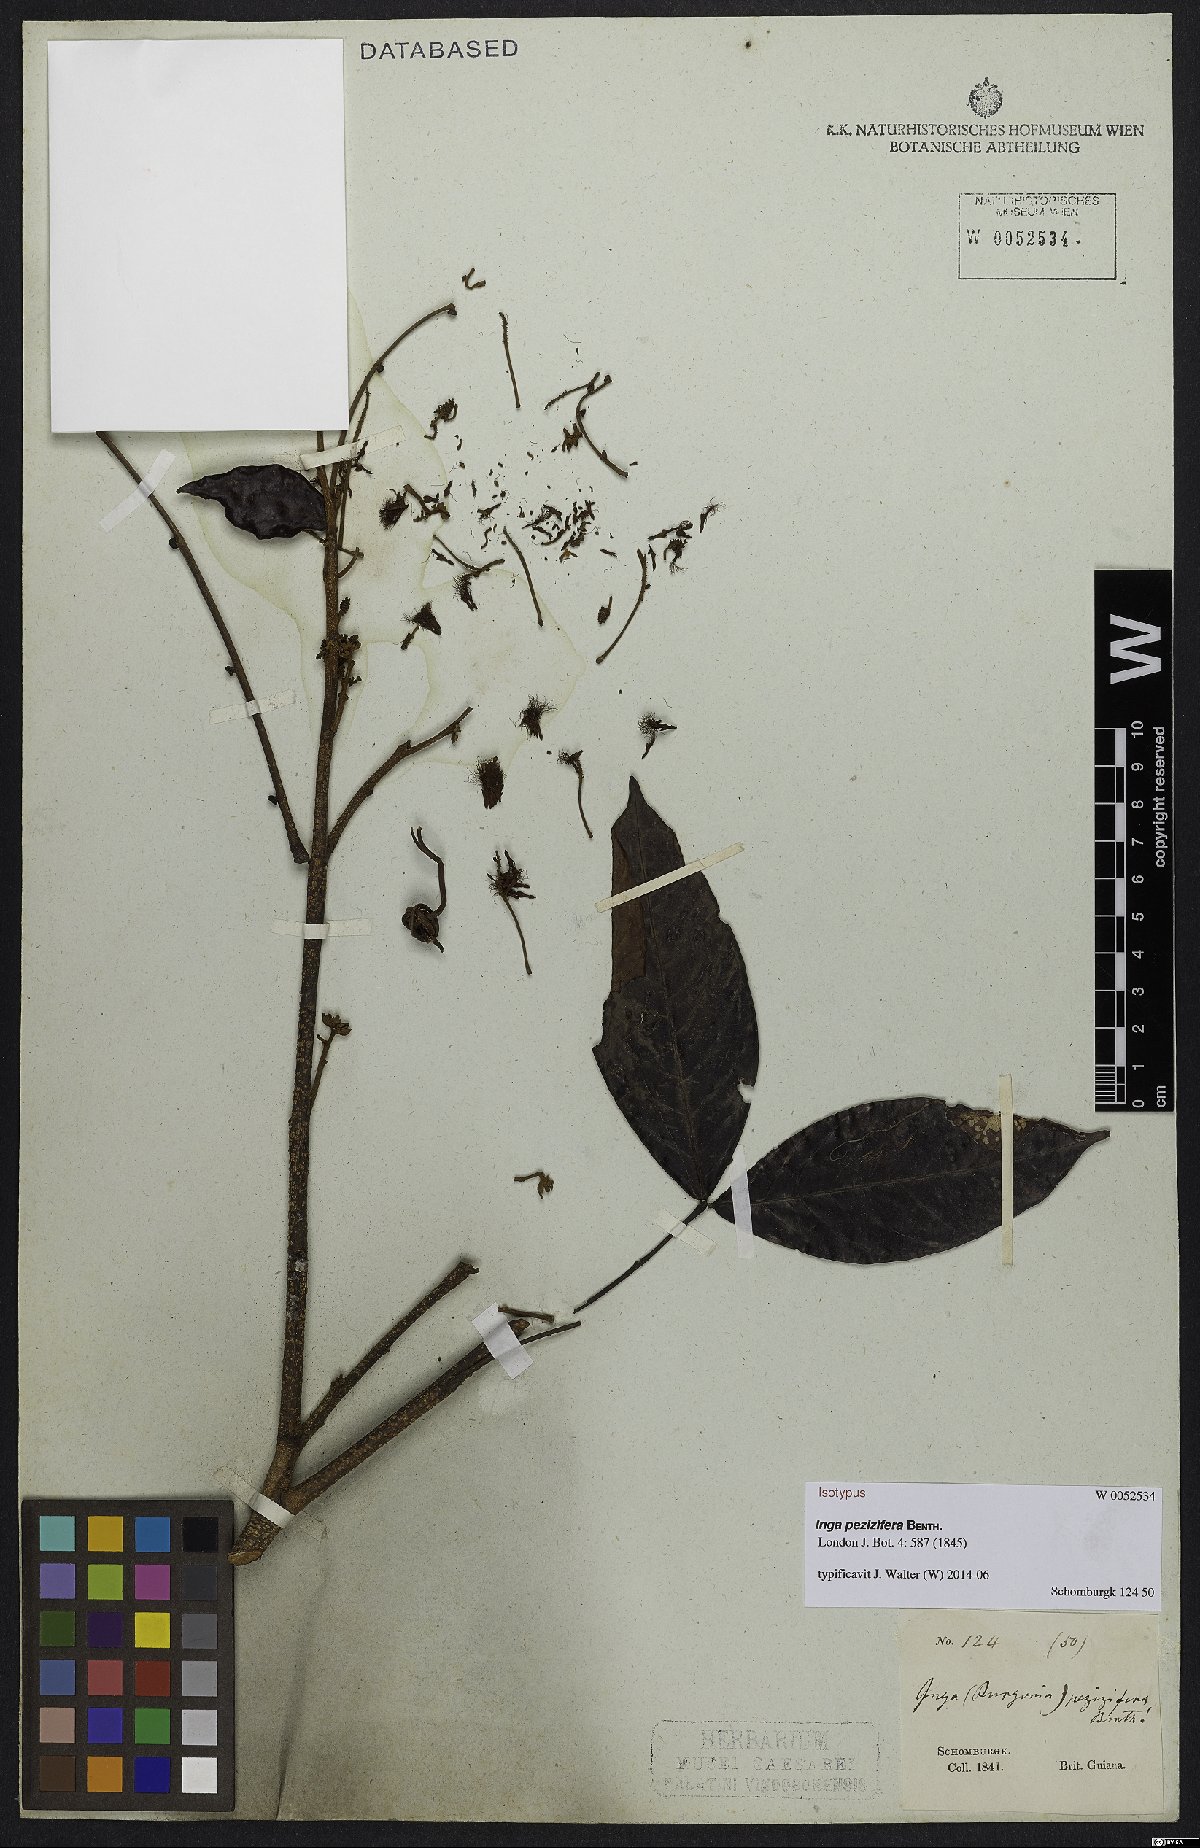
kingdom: Plantae
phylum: Tracheophyta
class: Magnoliopsida
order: Fabales
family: Fabaceae
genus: Inga
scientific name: Inga pezizifera
